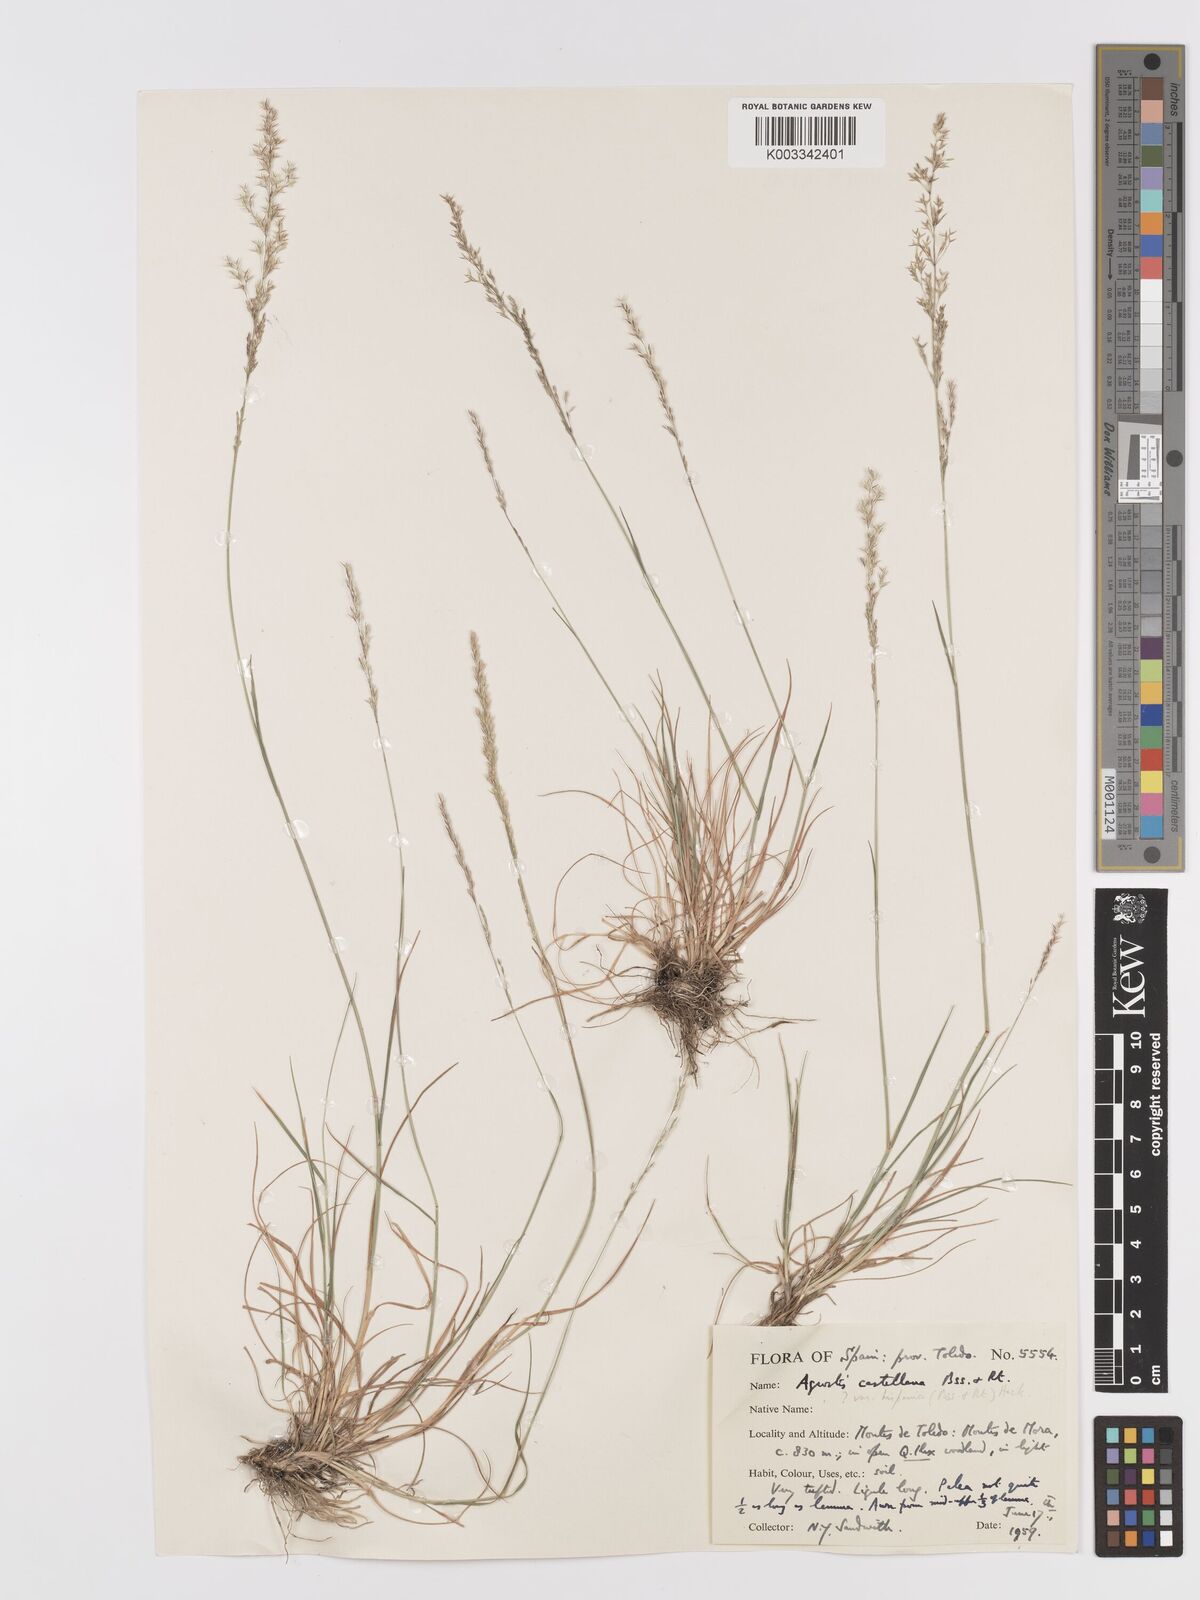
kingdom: Plantae
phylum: Tracheophyta
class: Liliopsida
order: Poales
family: Poaceae
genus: Agrostis
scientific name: Agrostis castellana
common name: Highland bent
